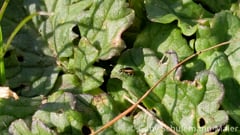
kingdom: Animalia
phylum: Arthropoda
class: Insecta
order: Coleoptera
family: Chrysomelidae
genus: Longitarsus
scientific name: Longitarsus dorsalis
